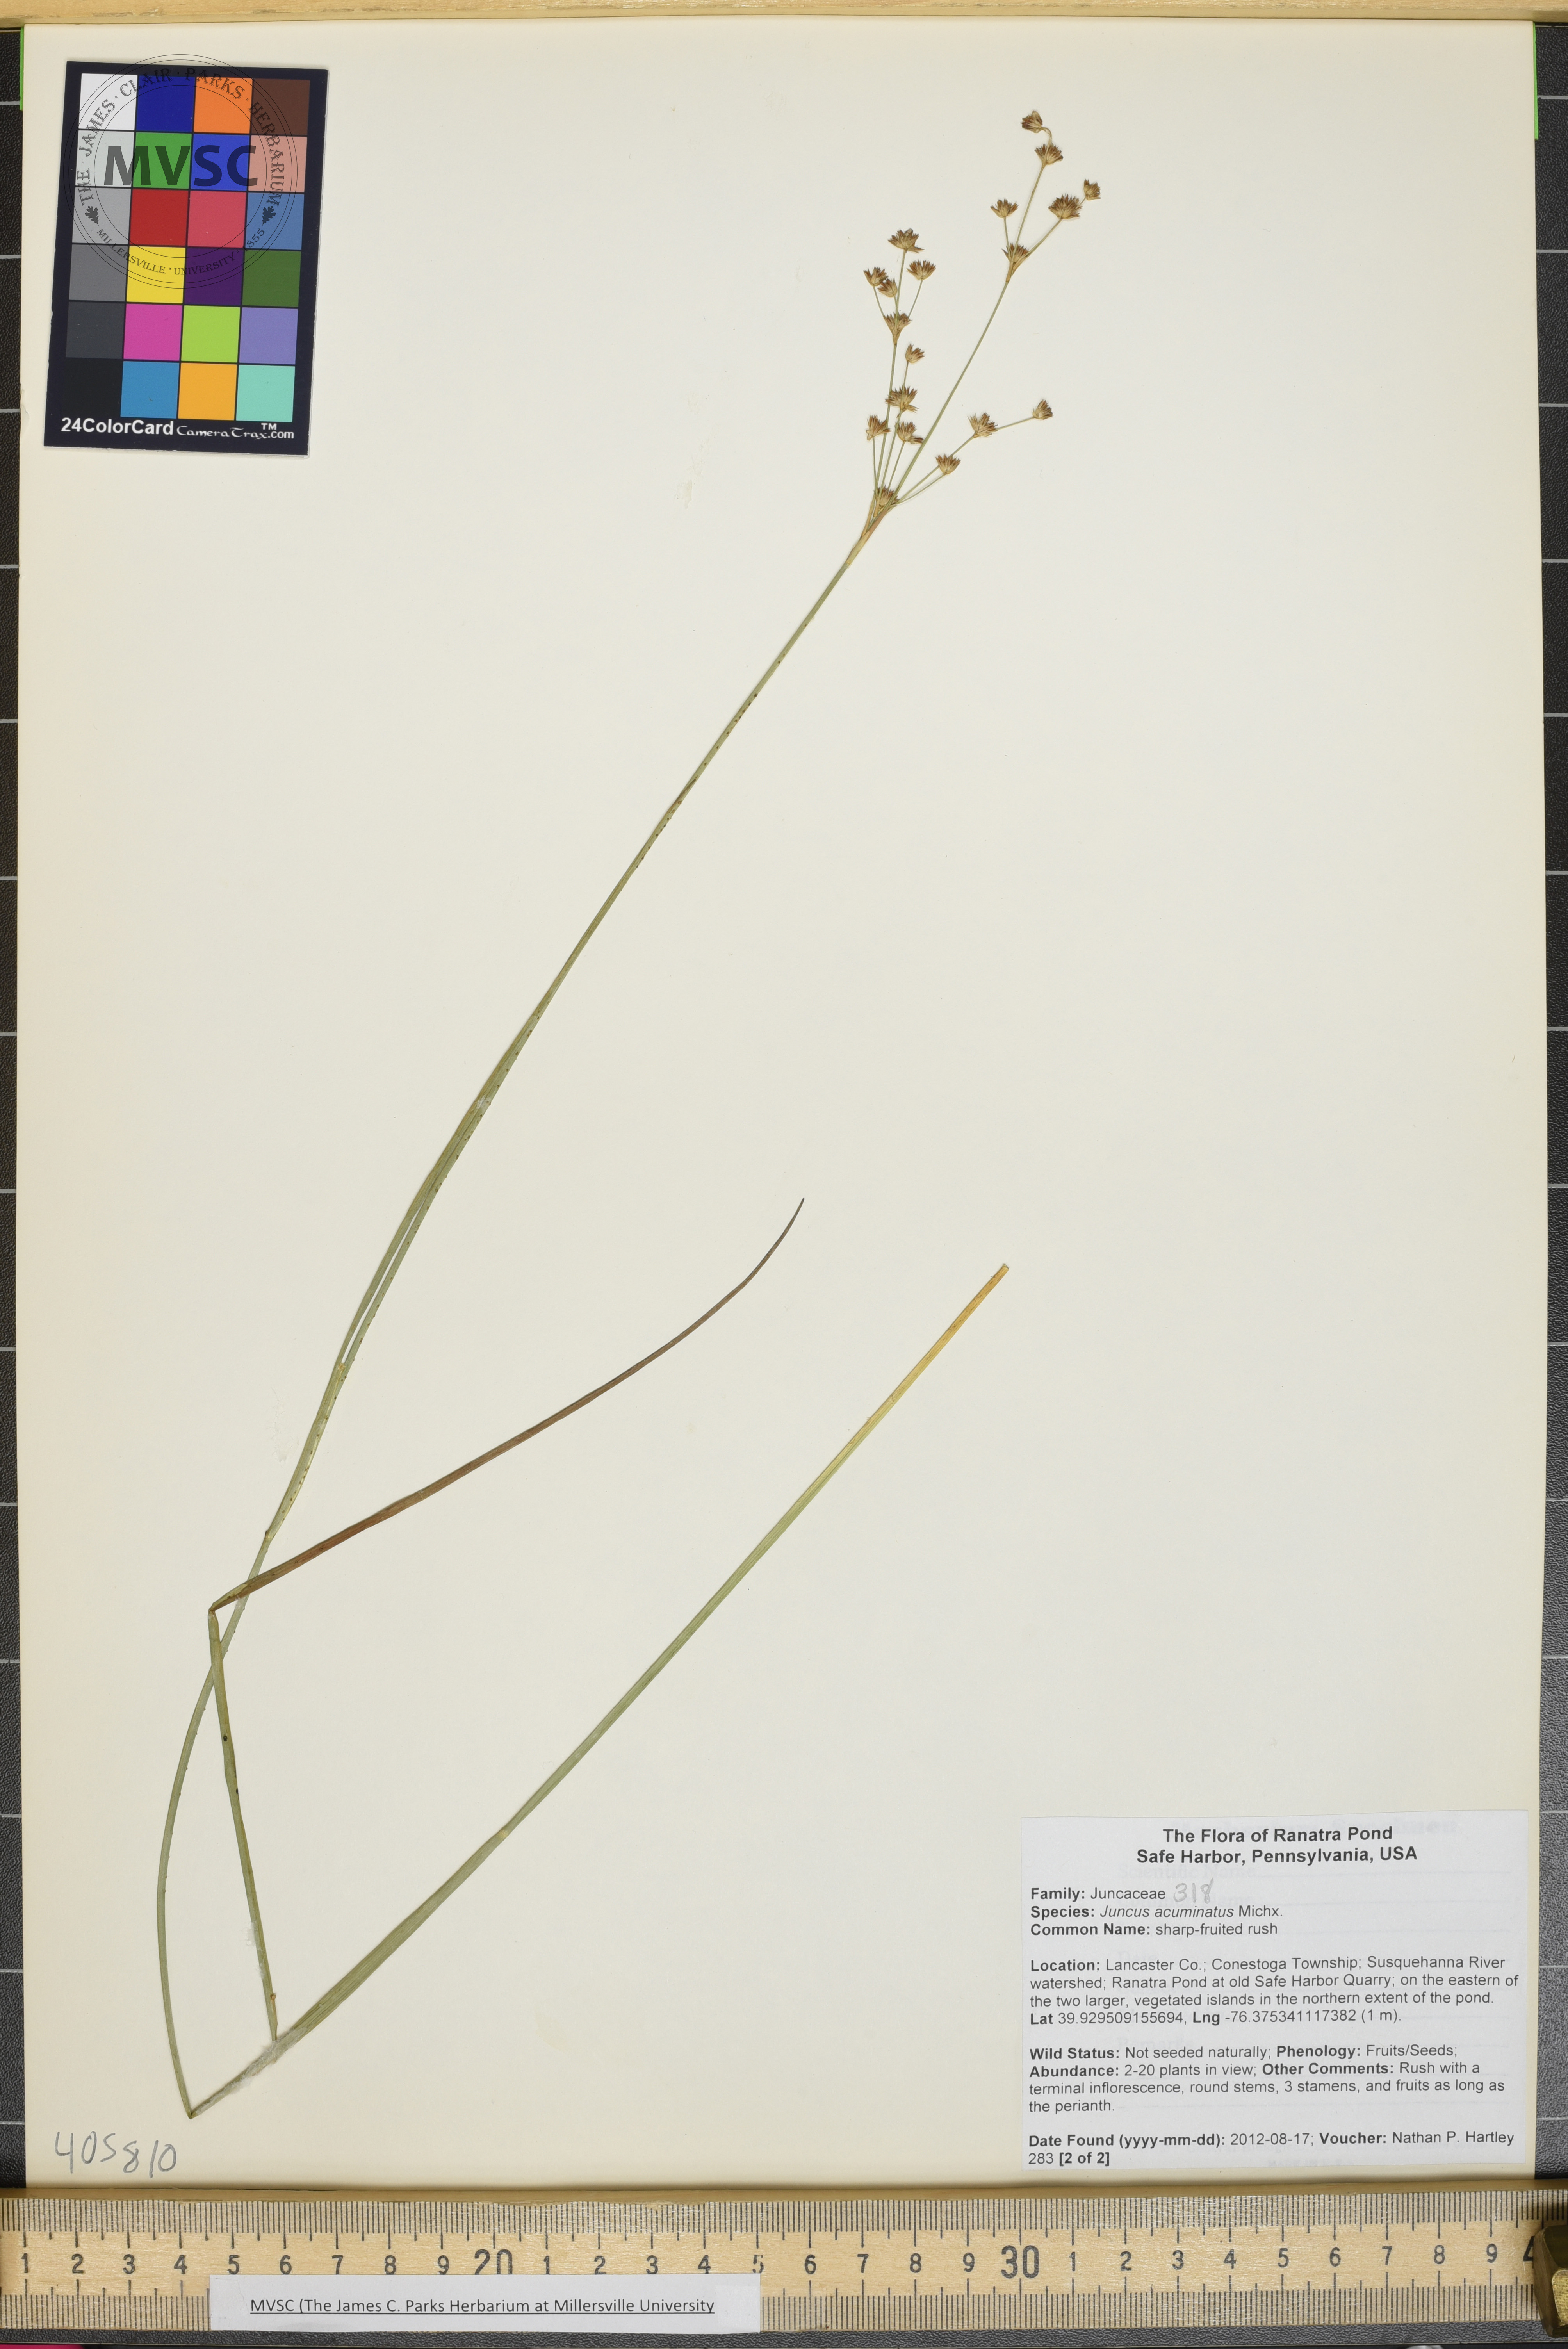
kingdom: Plantae
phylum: Tracheophyta
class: Liliopsida
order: Poales
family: Juncaceae
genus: Juncus
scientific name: Juncus acuminatus
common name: sharp-fruited rush
